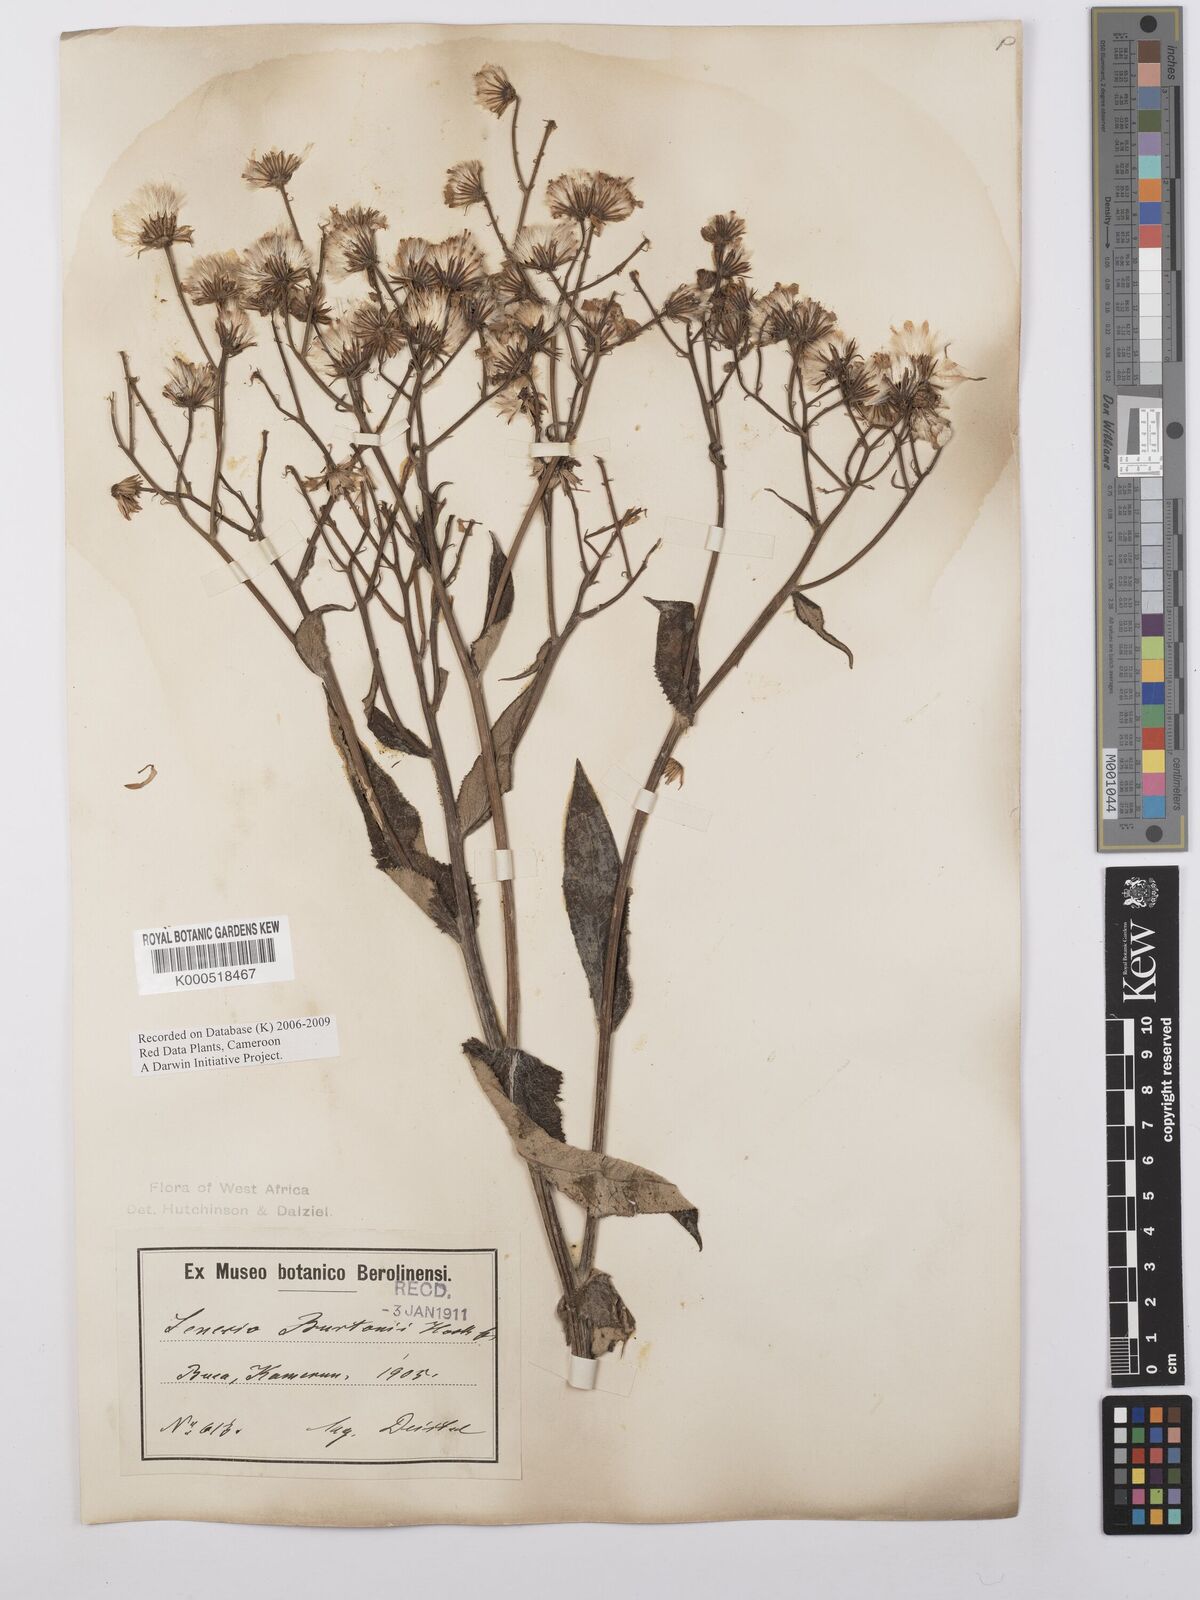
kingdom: Plantae
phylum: Tracheophyta
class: Magnoliopsida
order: Asterales
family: Asteraceae
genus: Senecio
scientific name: Senecio burtonii
